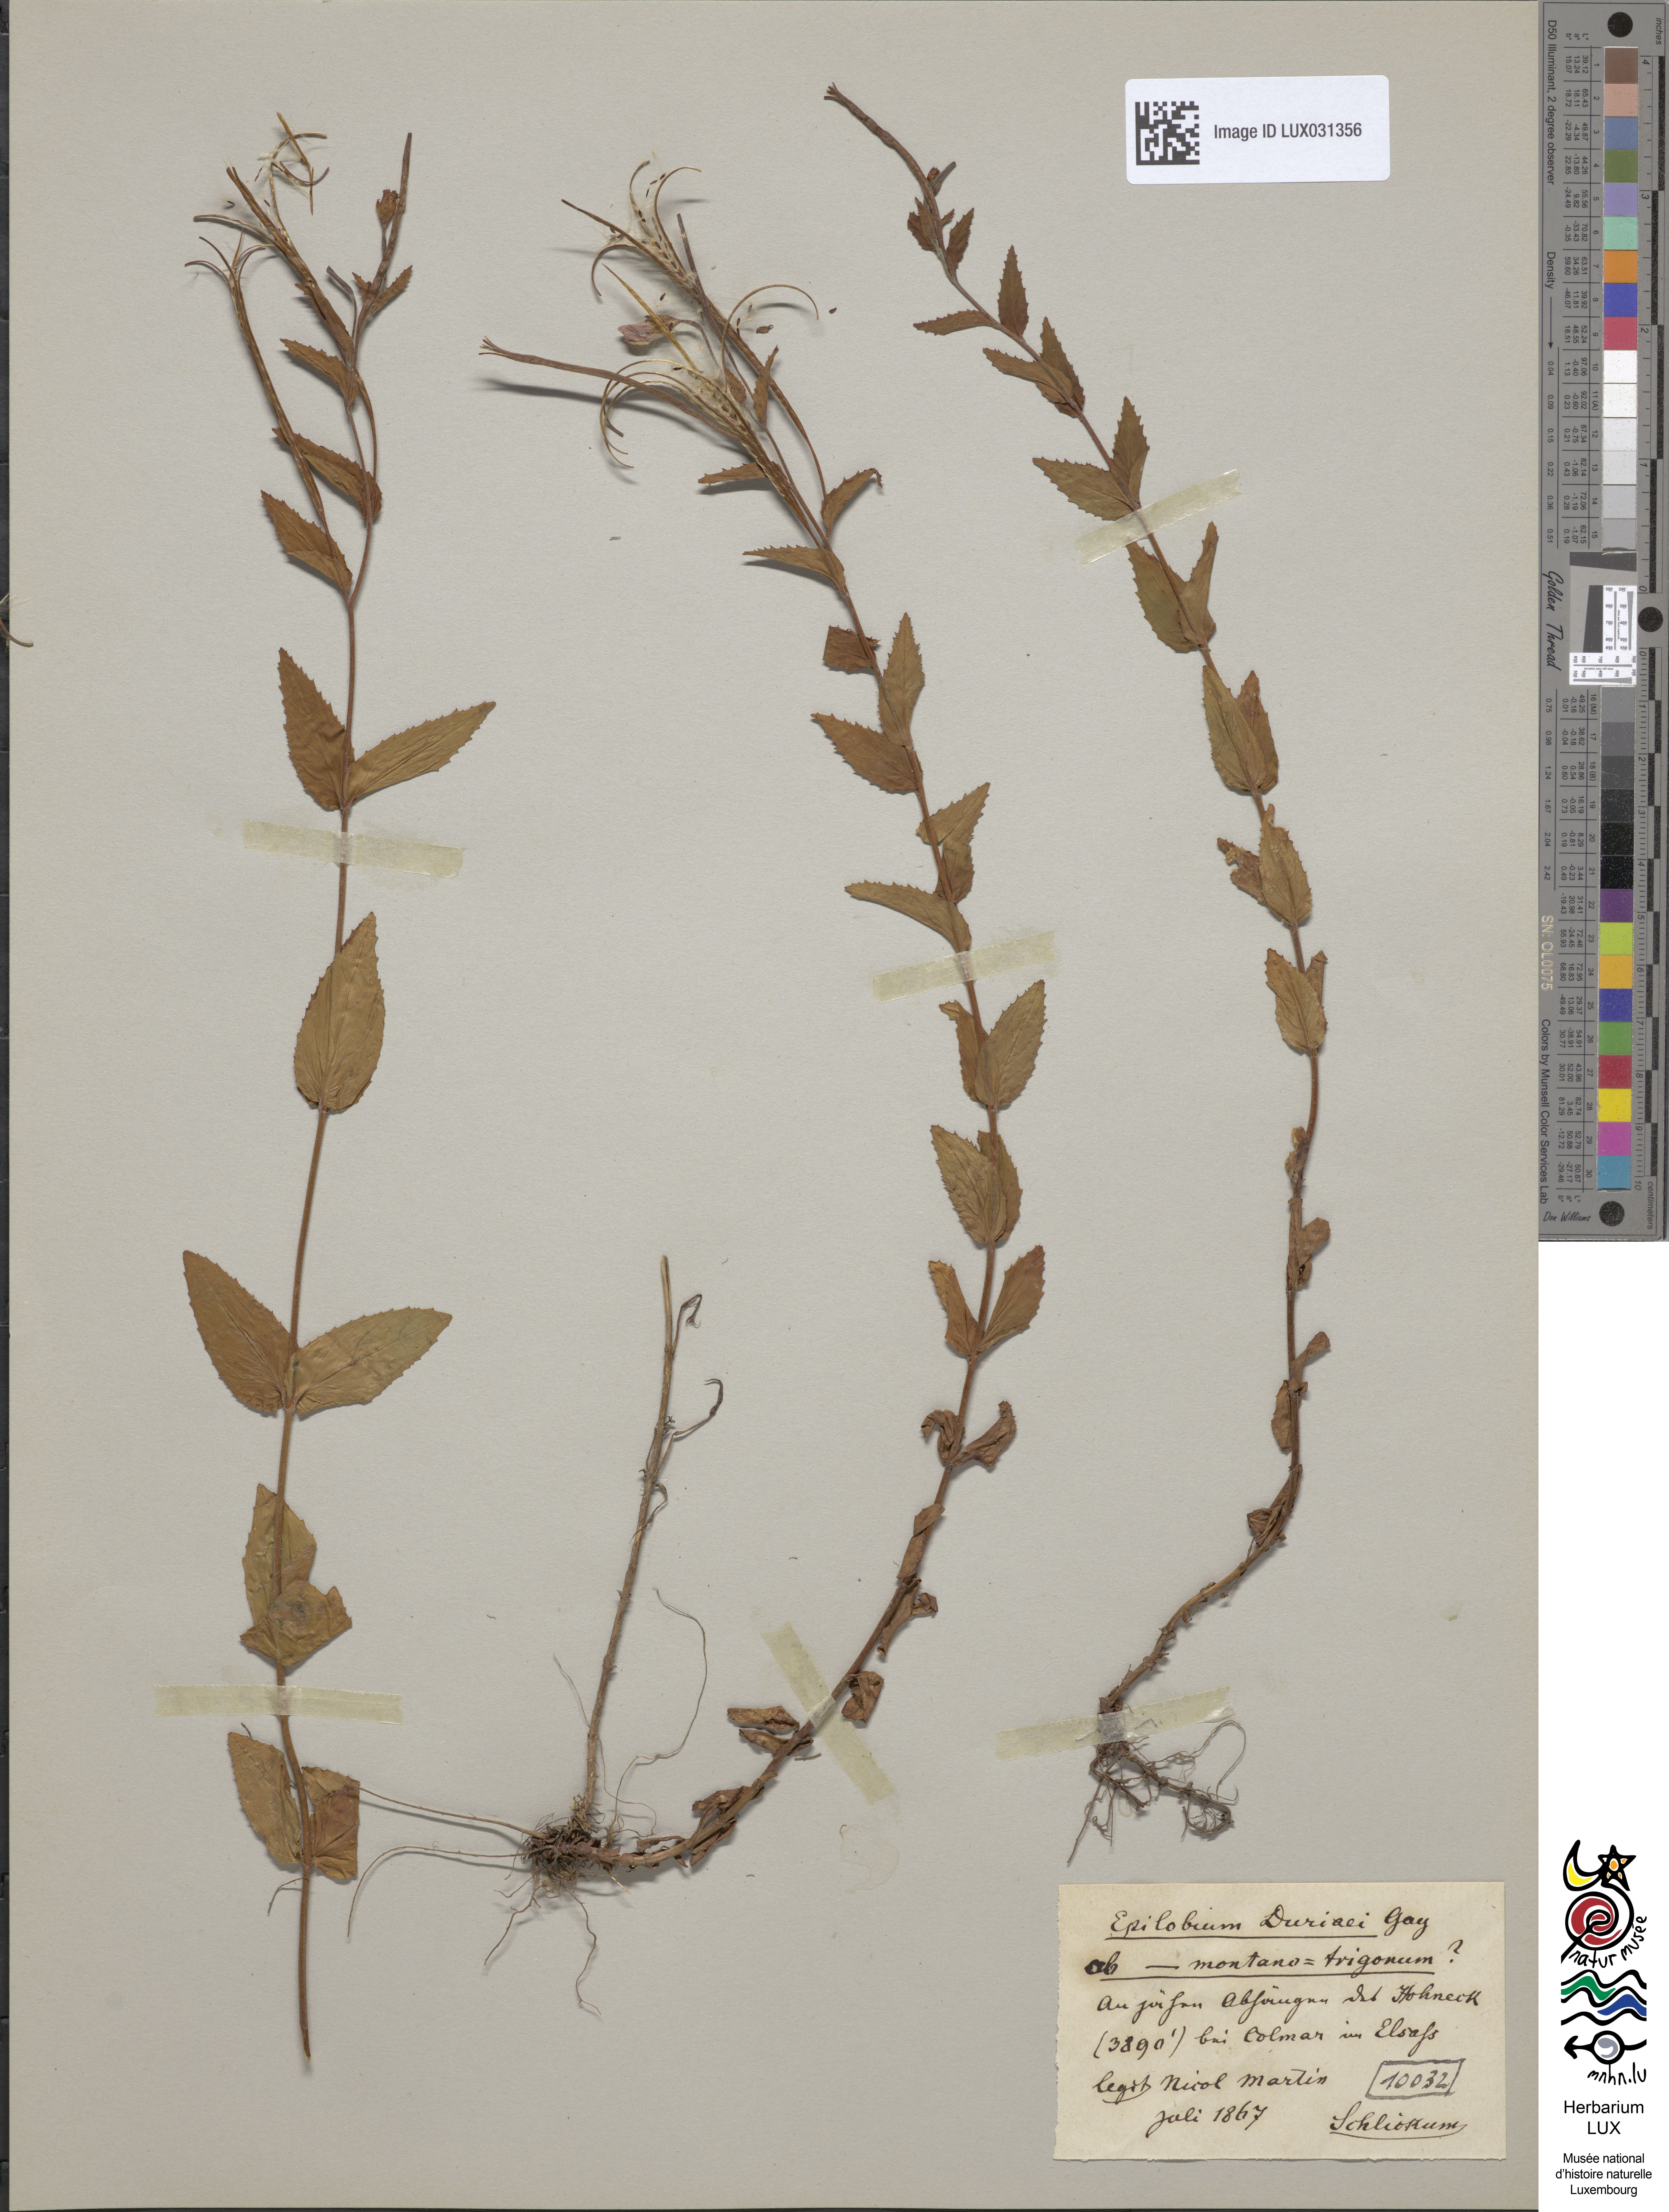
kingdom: Plantae
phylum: Tracheophyta
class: Magnoliopsida
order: Myrtales
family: Onagraceae
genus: Epilobium
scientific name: Epilobium duriaei
